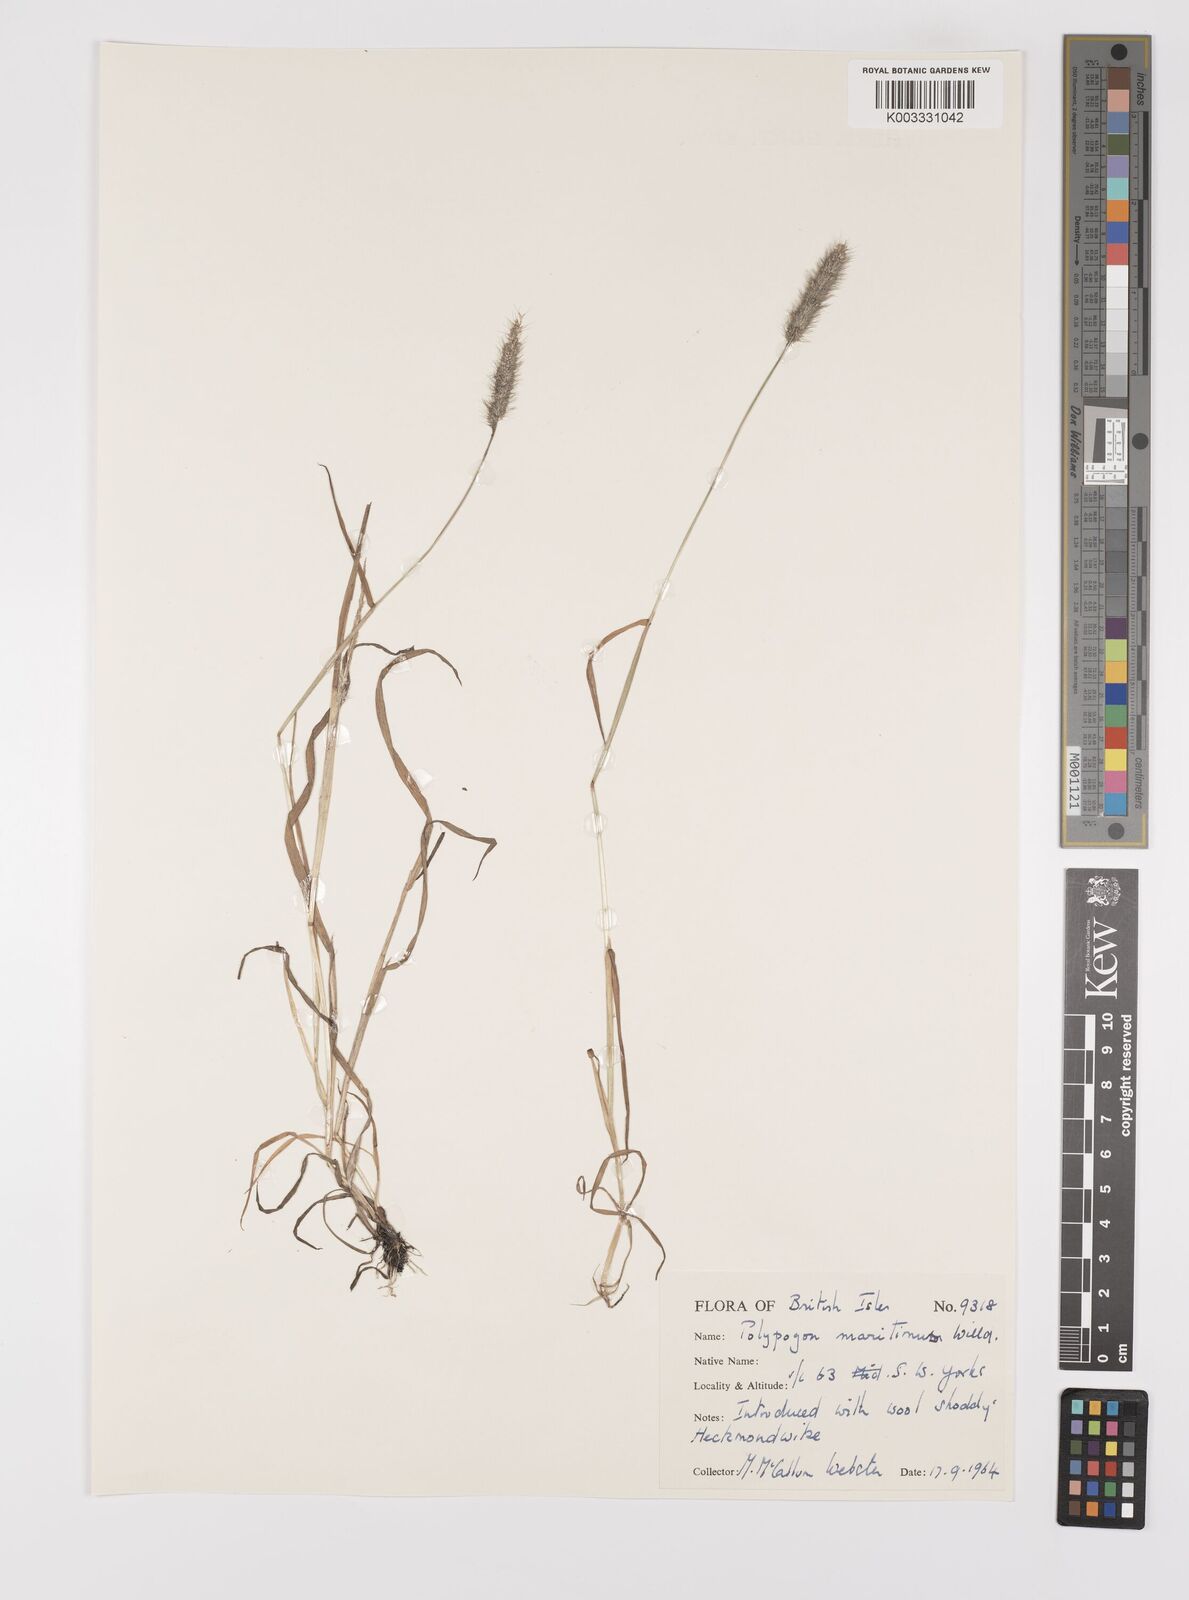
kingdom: Plantae
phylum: Tracheophyta
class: Liliopsida
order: Poales
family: Poaceae
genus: Polypogon
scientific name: Polypogon monspeliensis
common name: Annual rabbitsfoot grass
